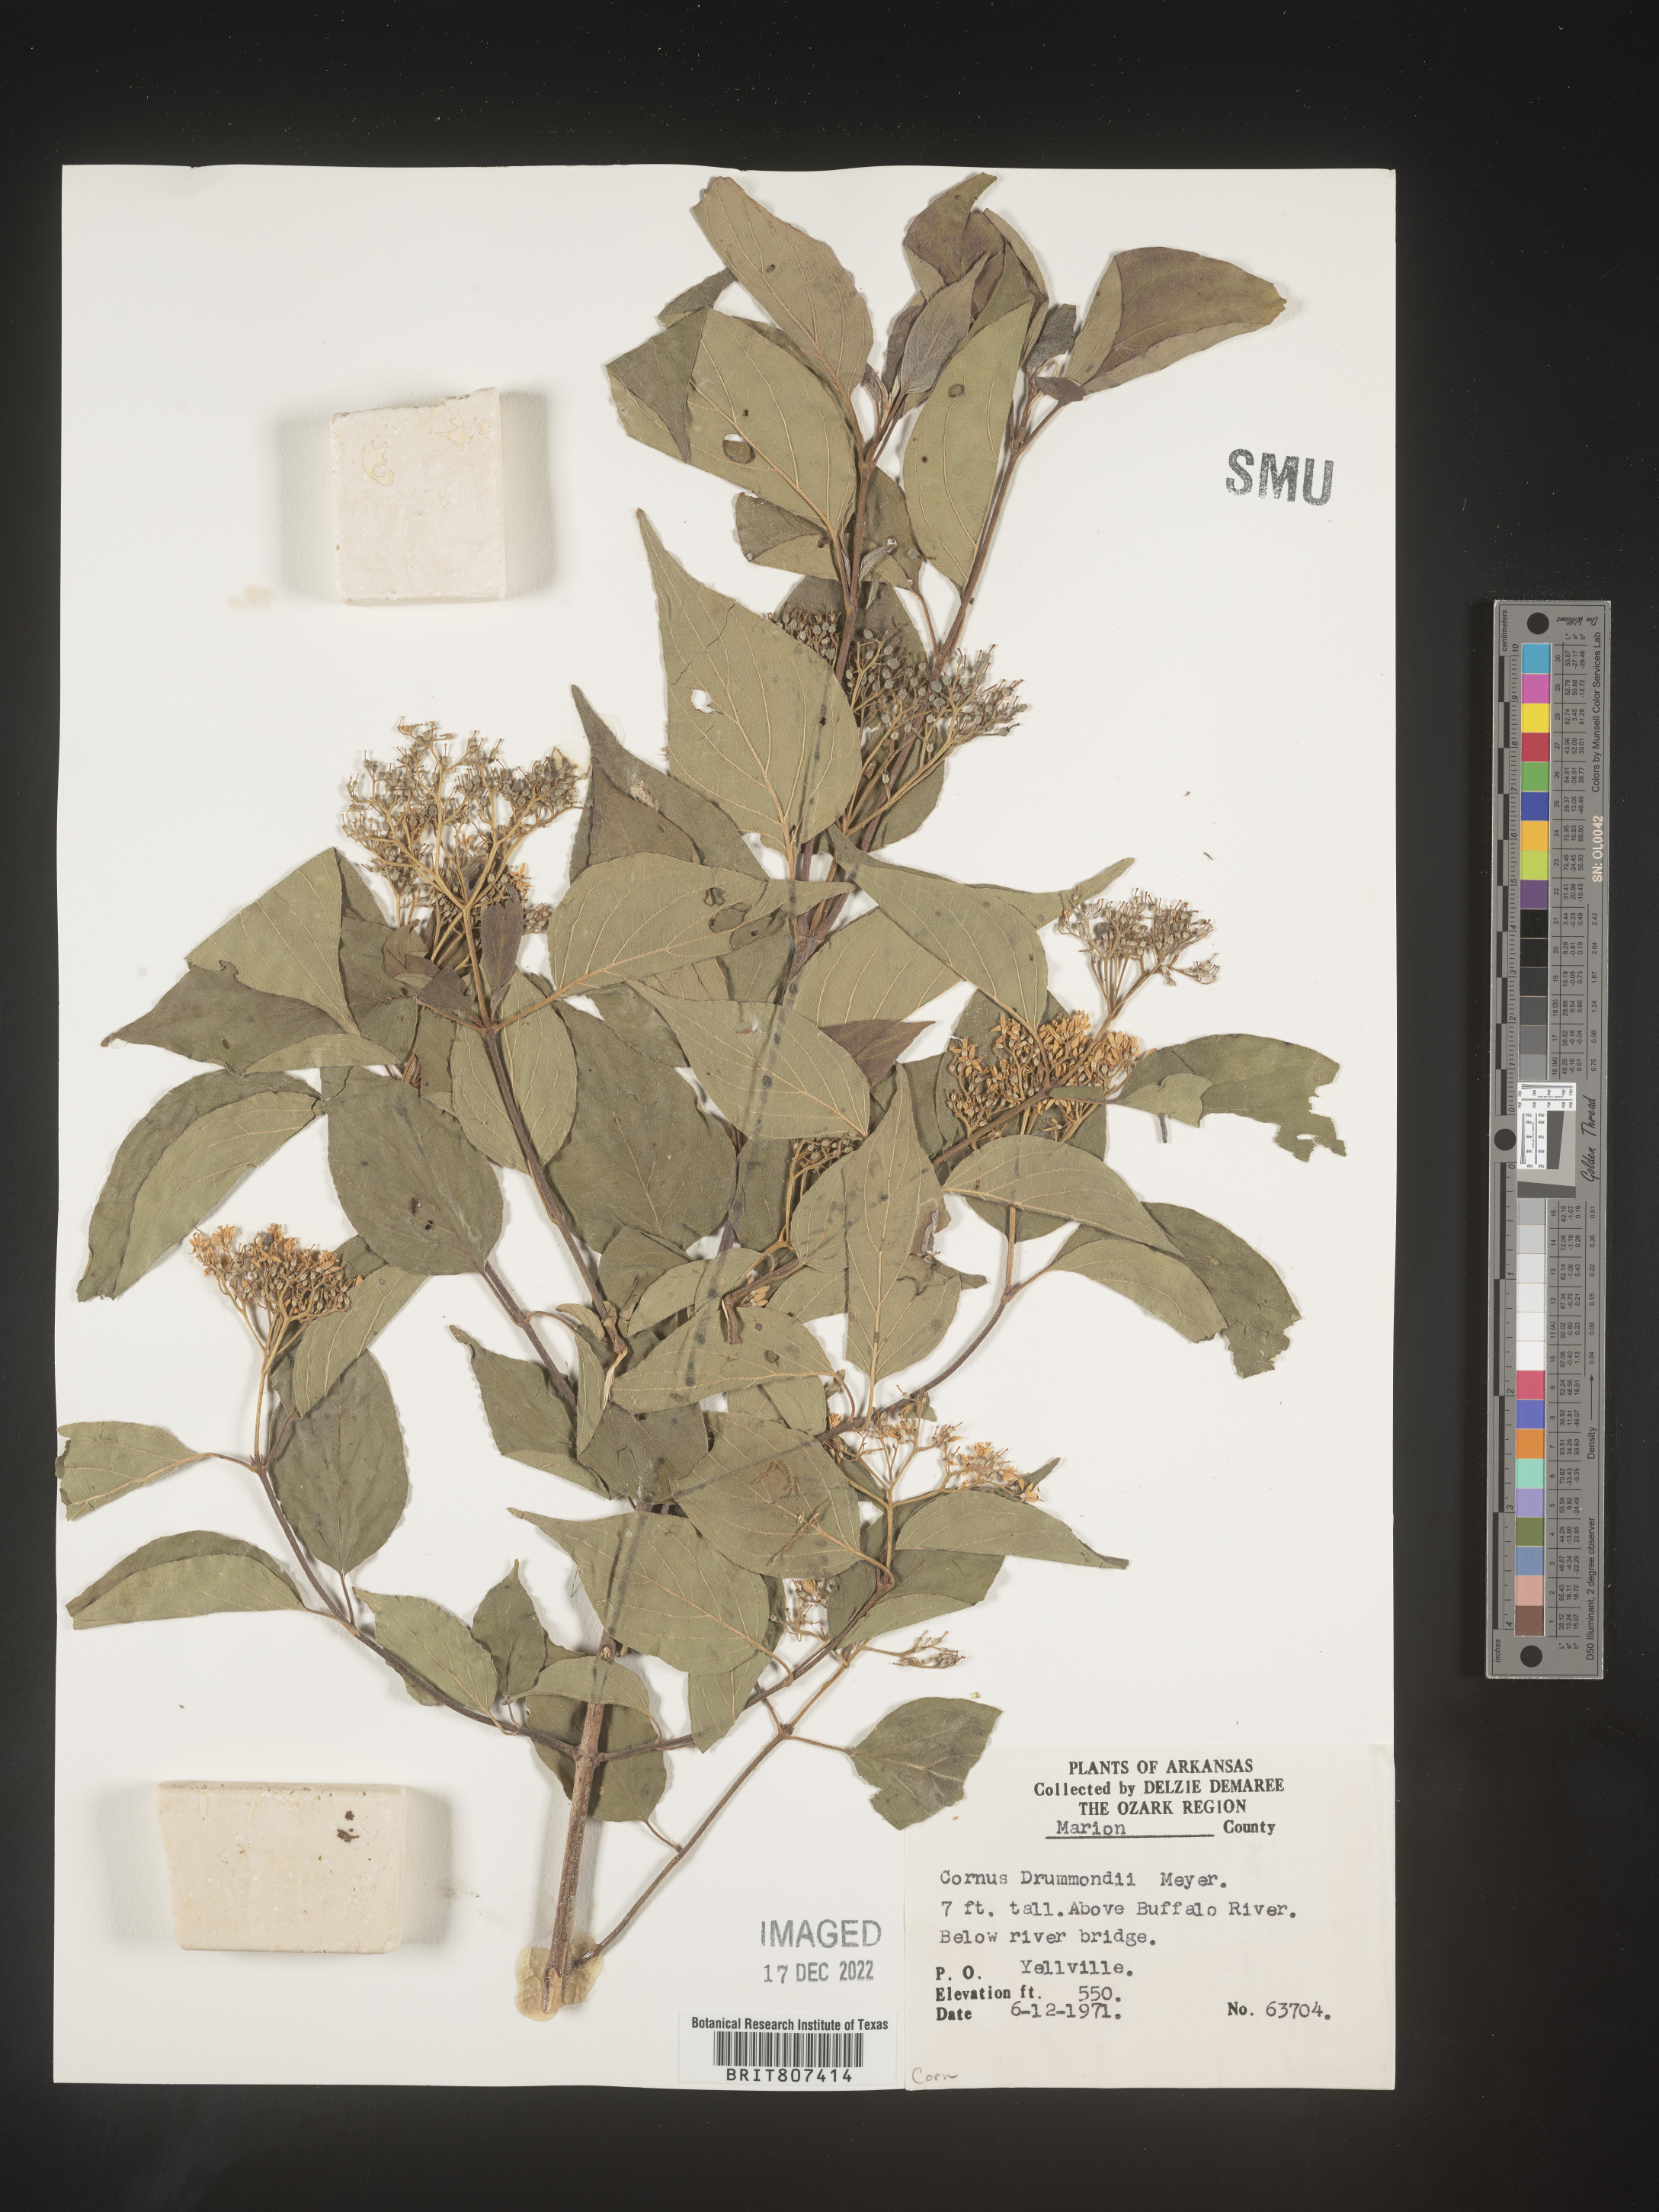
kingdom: Plantae
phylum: Tracheophyta
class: Magnoliopsida
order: Cornales
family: Cornaceae
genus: Cornus
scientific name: Cornus drummondii
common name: Rough-leaf dogwood
